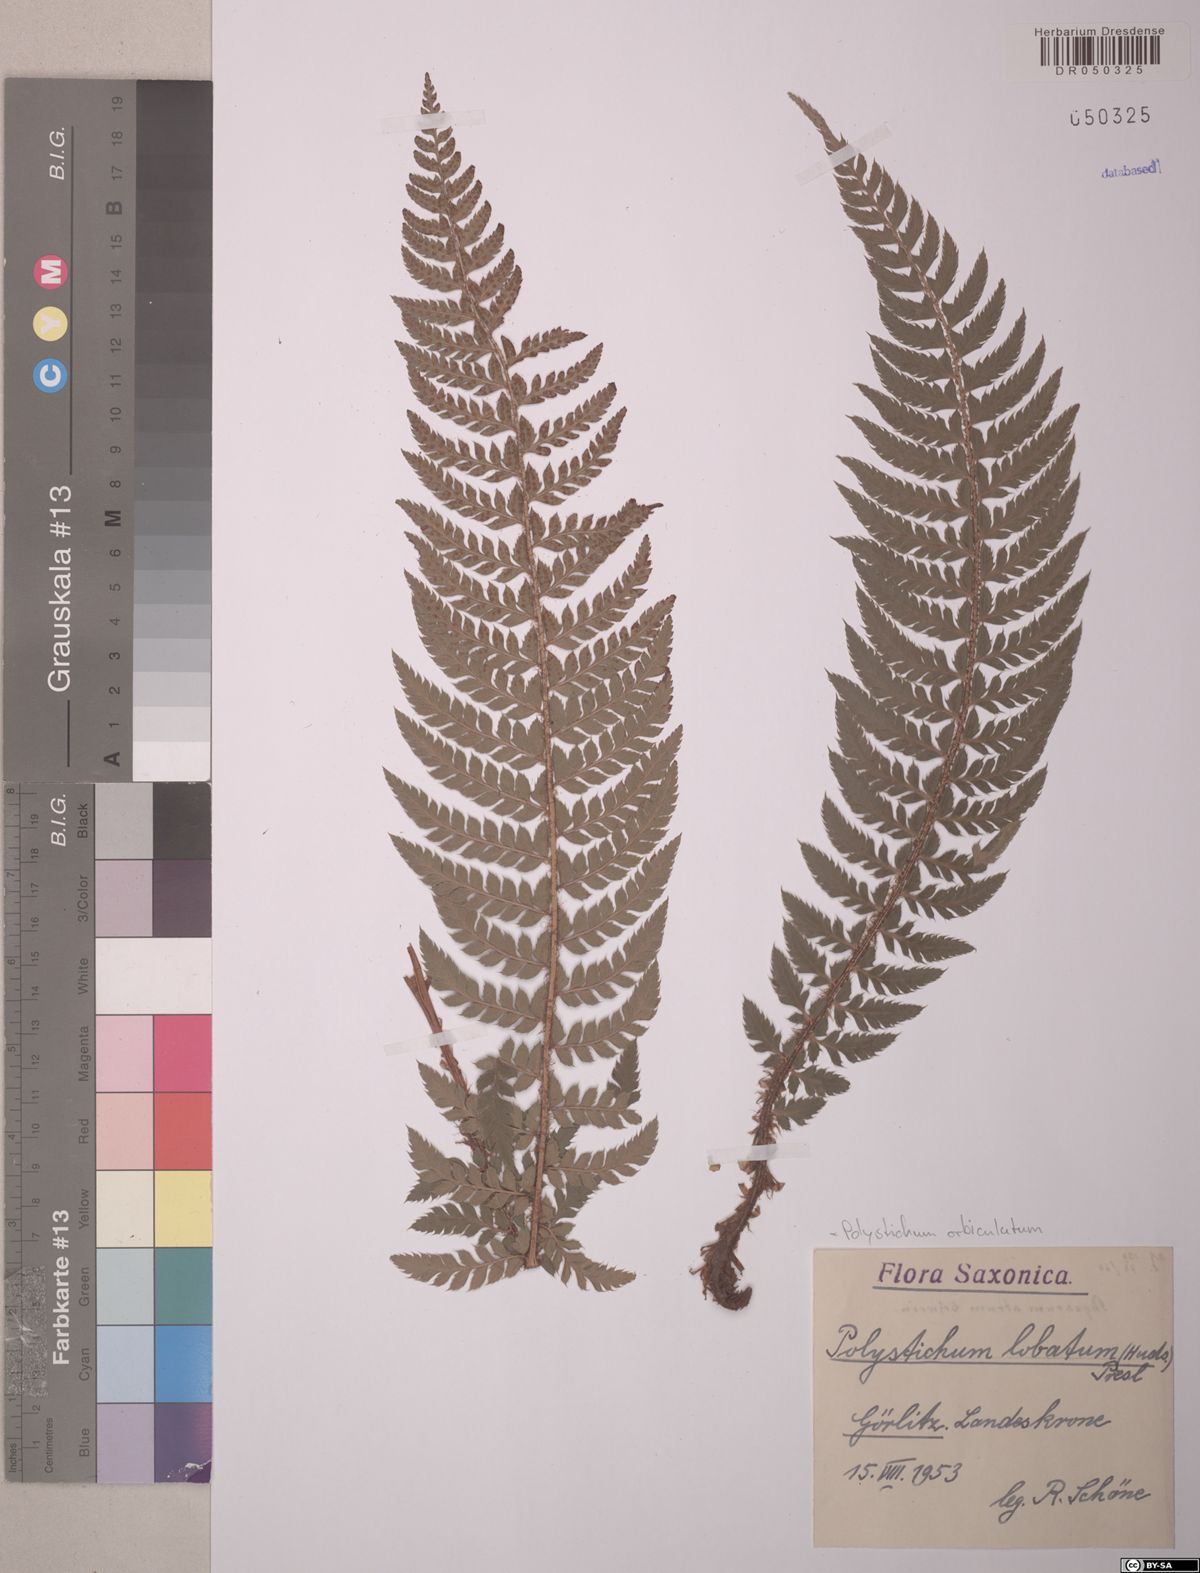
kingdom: Plantae
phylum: Tracheophyta
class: Polypodiopsida
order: Polypodiales
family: Dryopteridaceae
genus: Polystichum
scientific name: Polystichum aculeatum
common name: Hard shield-fern
